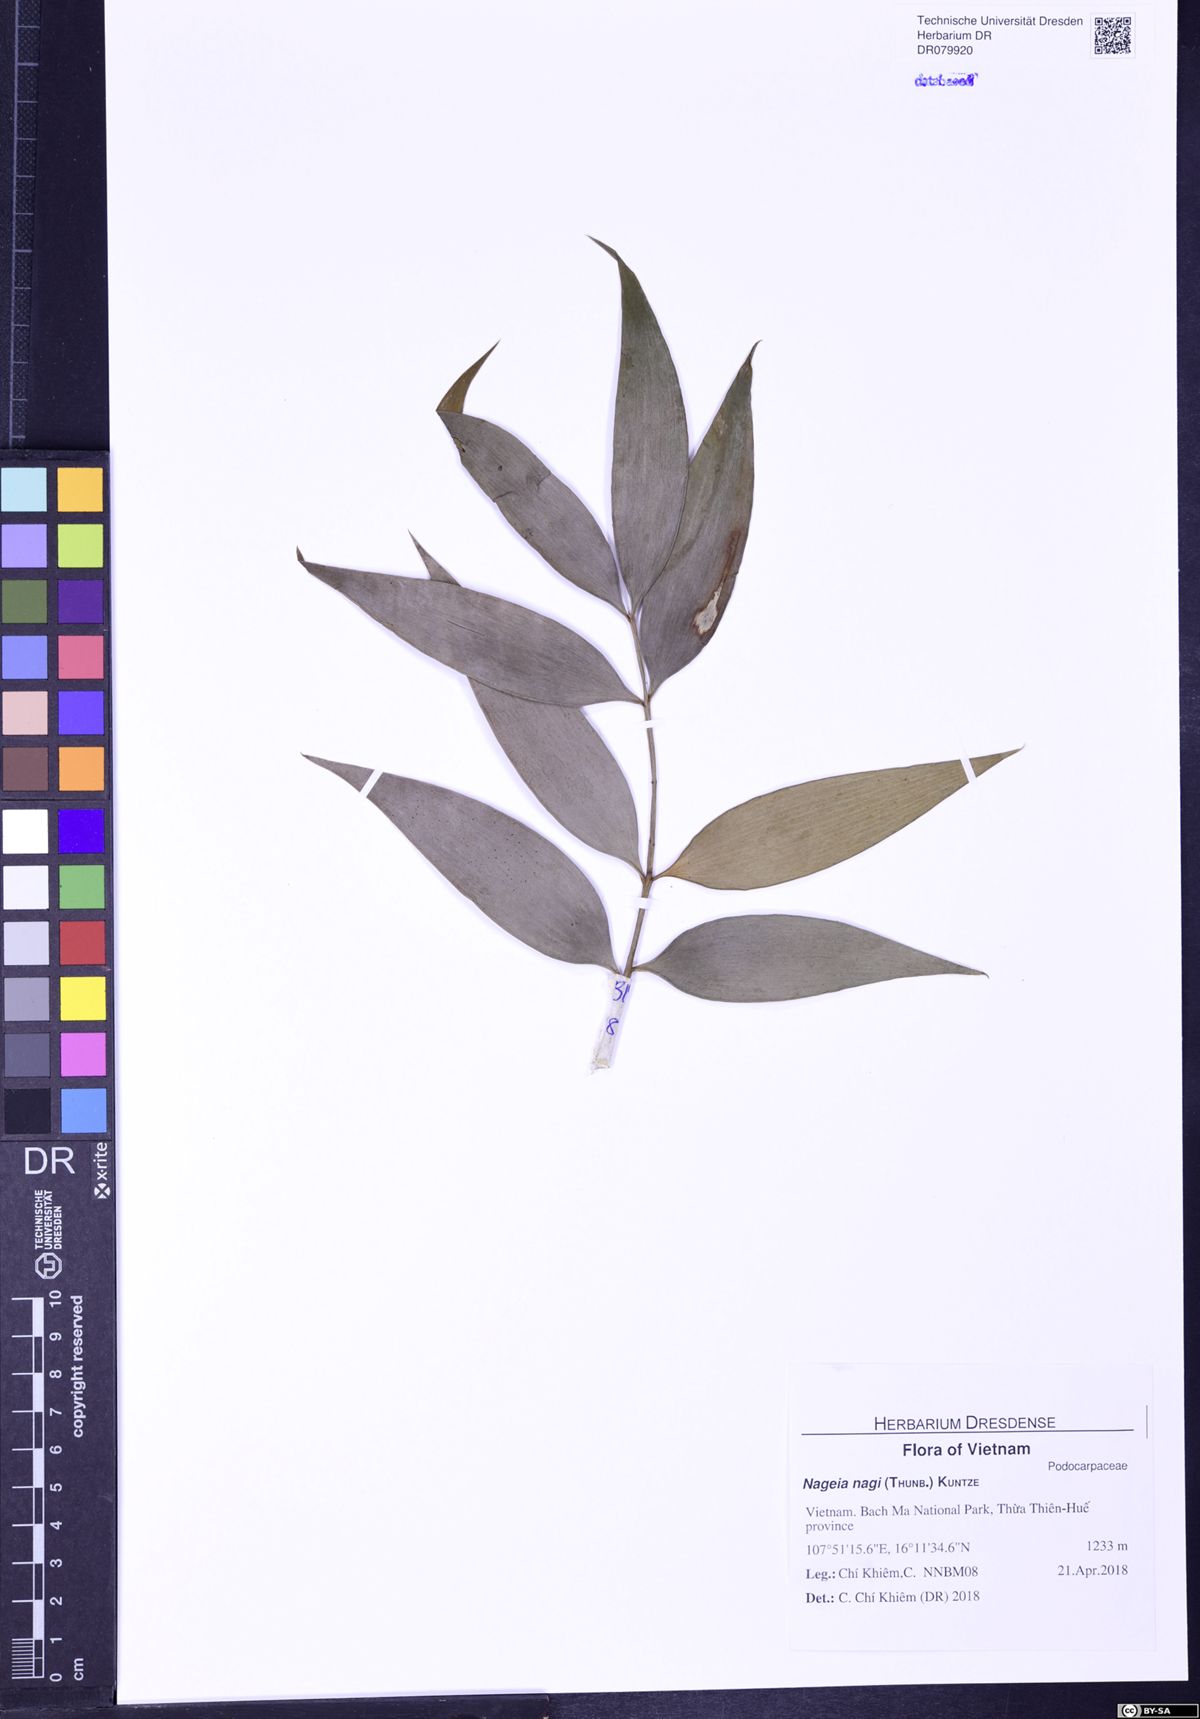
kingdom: Plantae
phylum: Tracheophyta
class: Pinopsida
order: Pinales
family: Podocarpaceae
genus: Nageia
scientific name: Nageia nagi
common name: Kaphal
